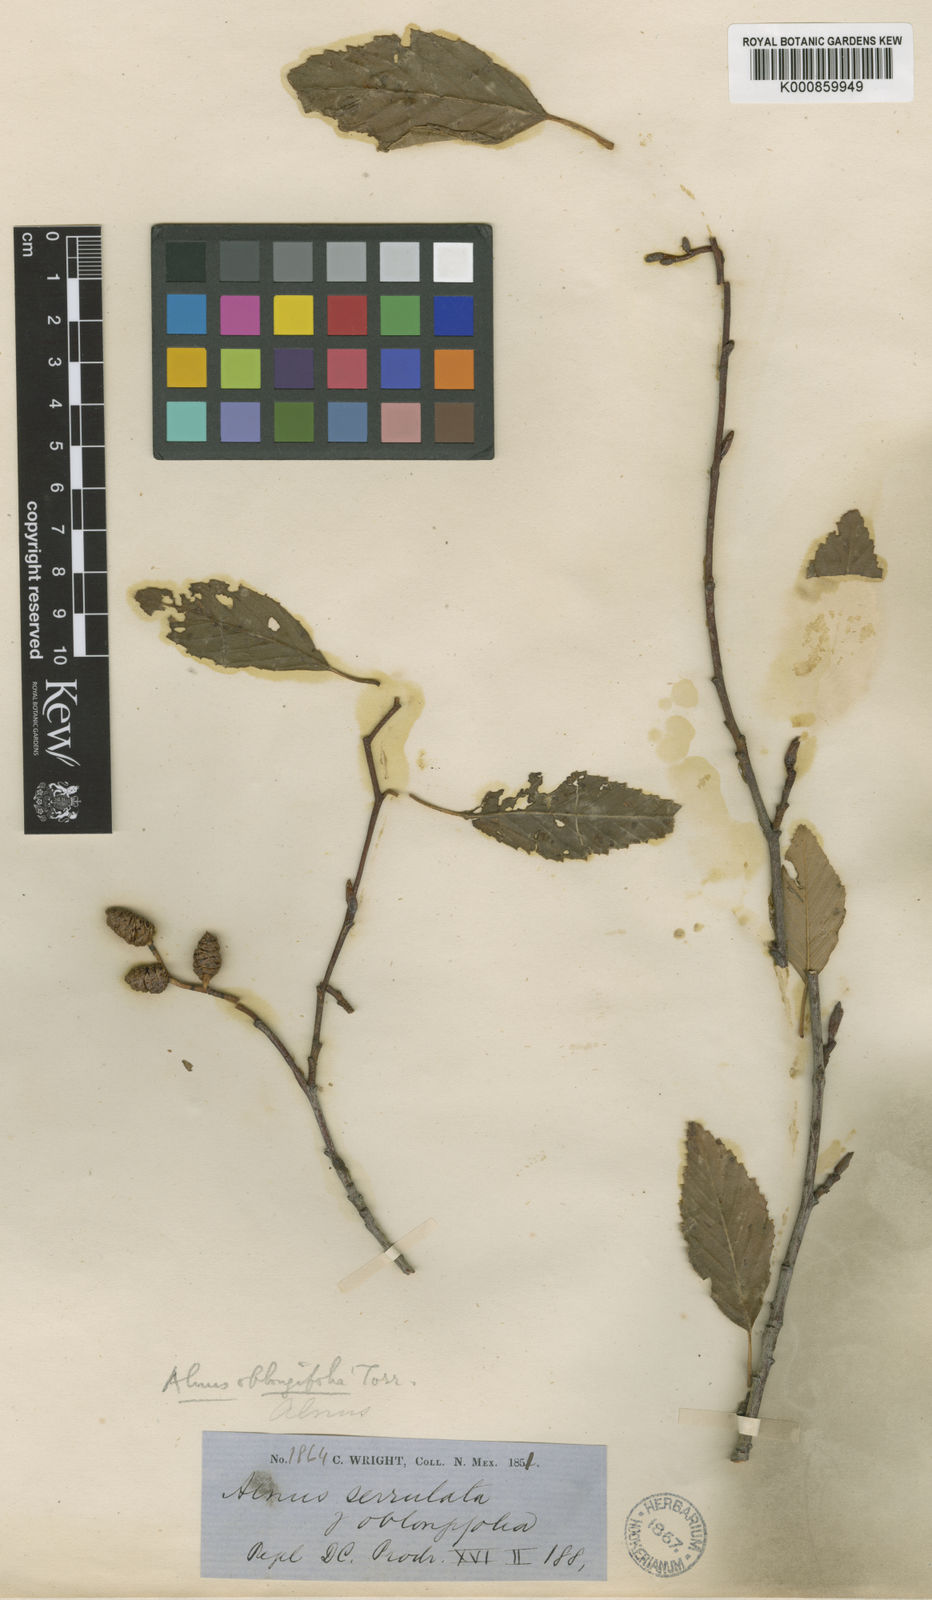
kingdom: Plantae
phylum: Tracheophyta
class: Magnoliopsida
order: Fagales
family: Betulaceae
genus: Alnus
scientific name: Alnus oblongifolia
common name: Arizona alder
